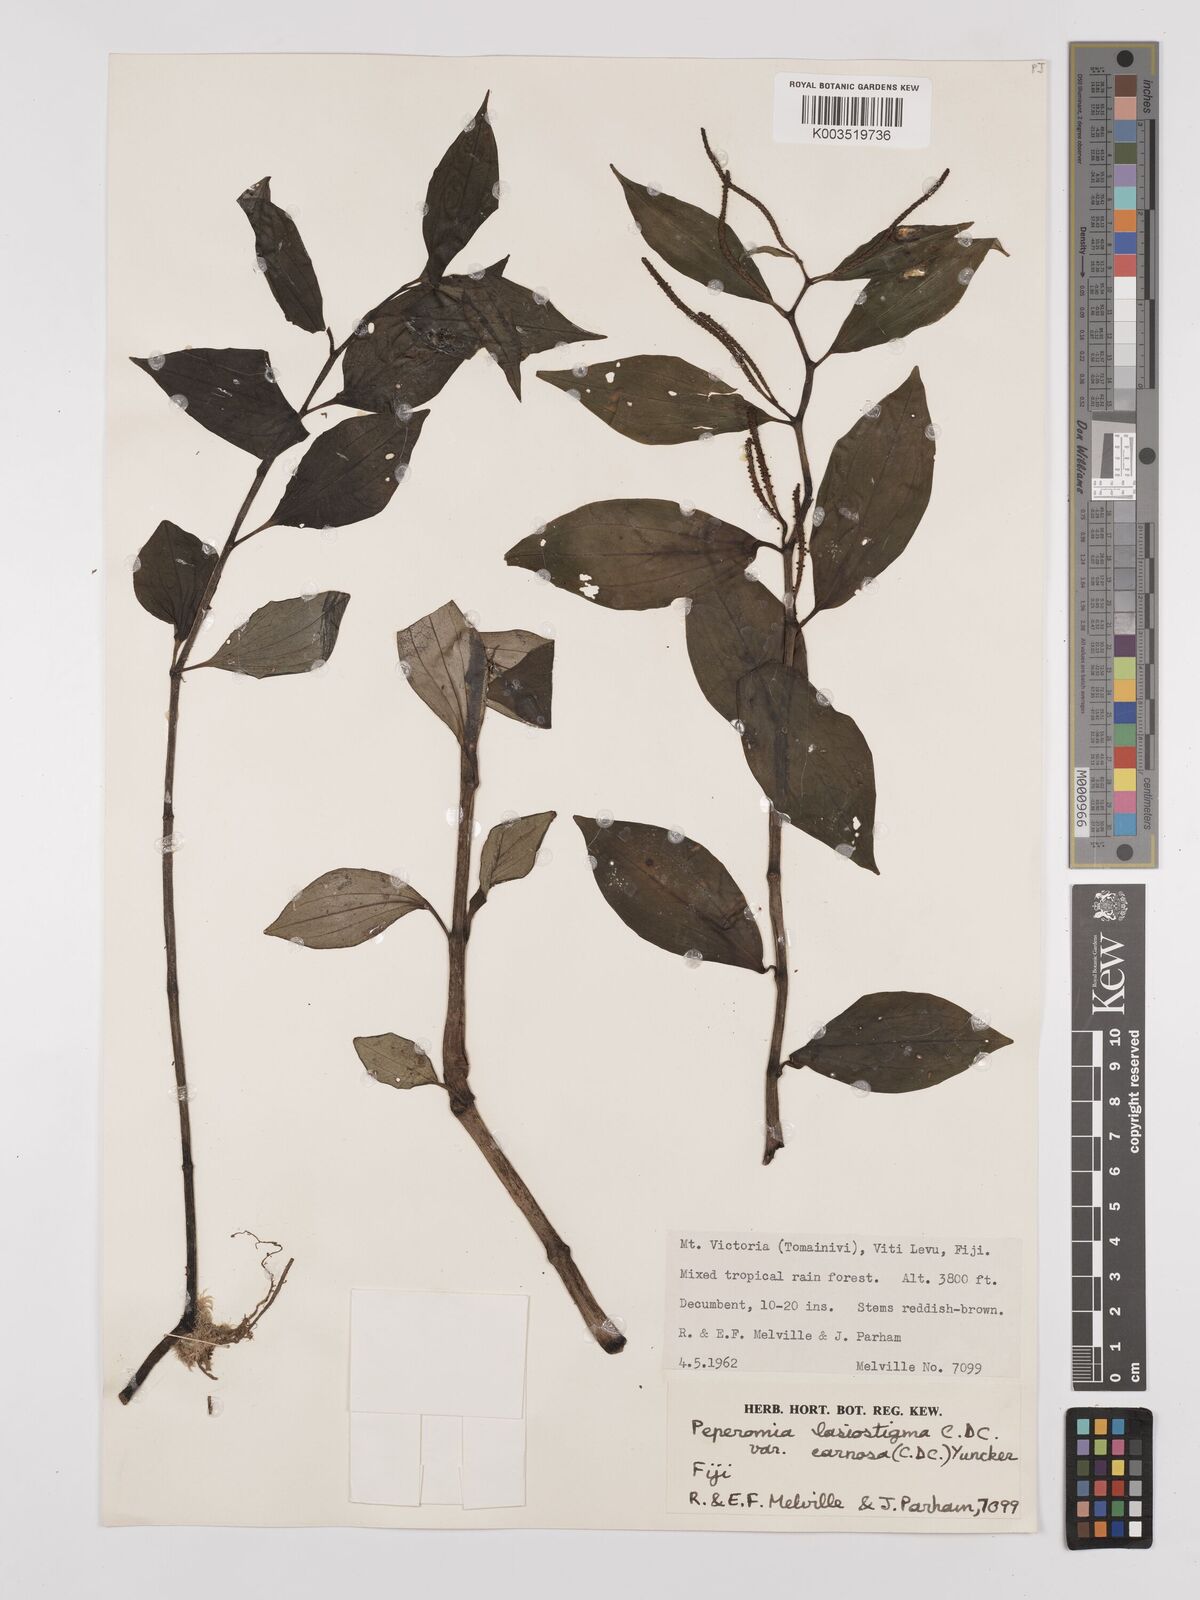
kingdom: Plantae
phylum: Tracheophyta
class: Magnoliopsida
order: Piperales
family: Piperaceae
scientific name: Piperaceae
